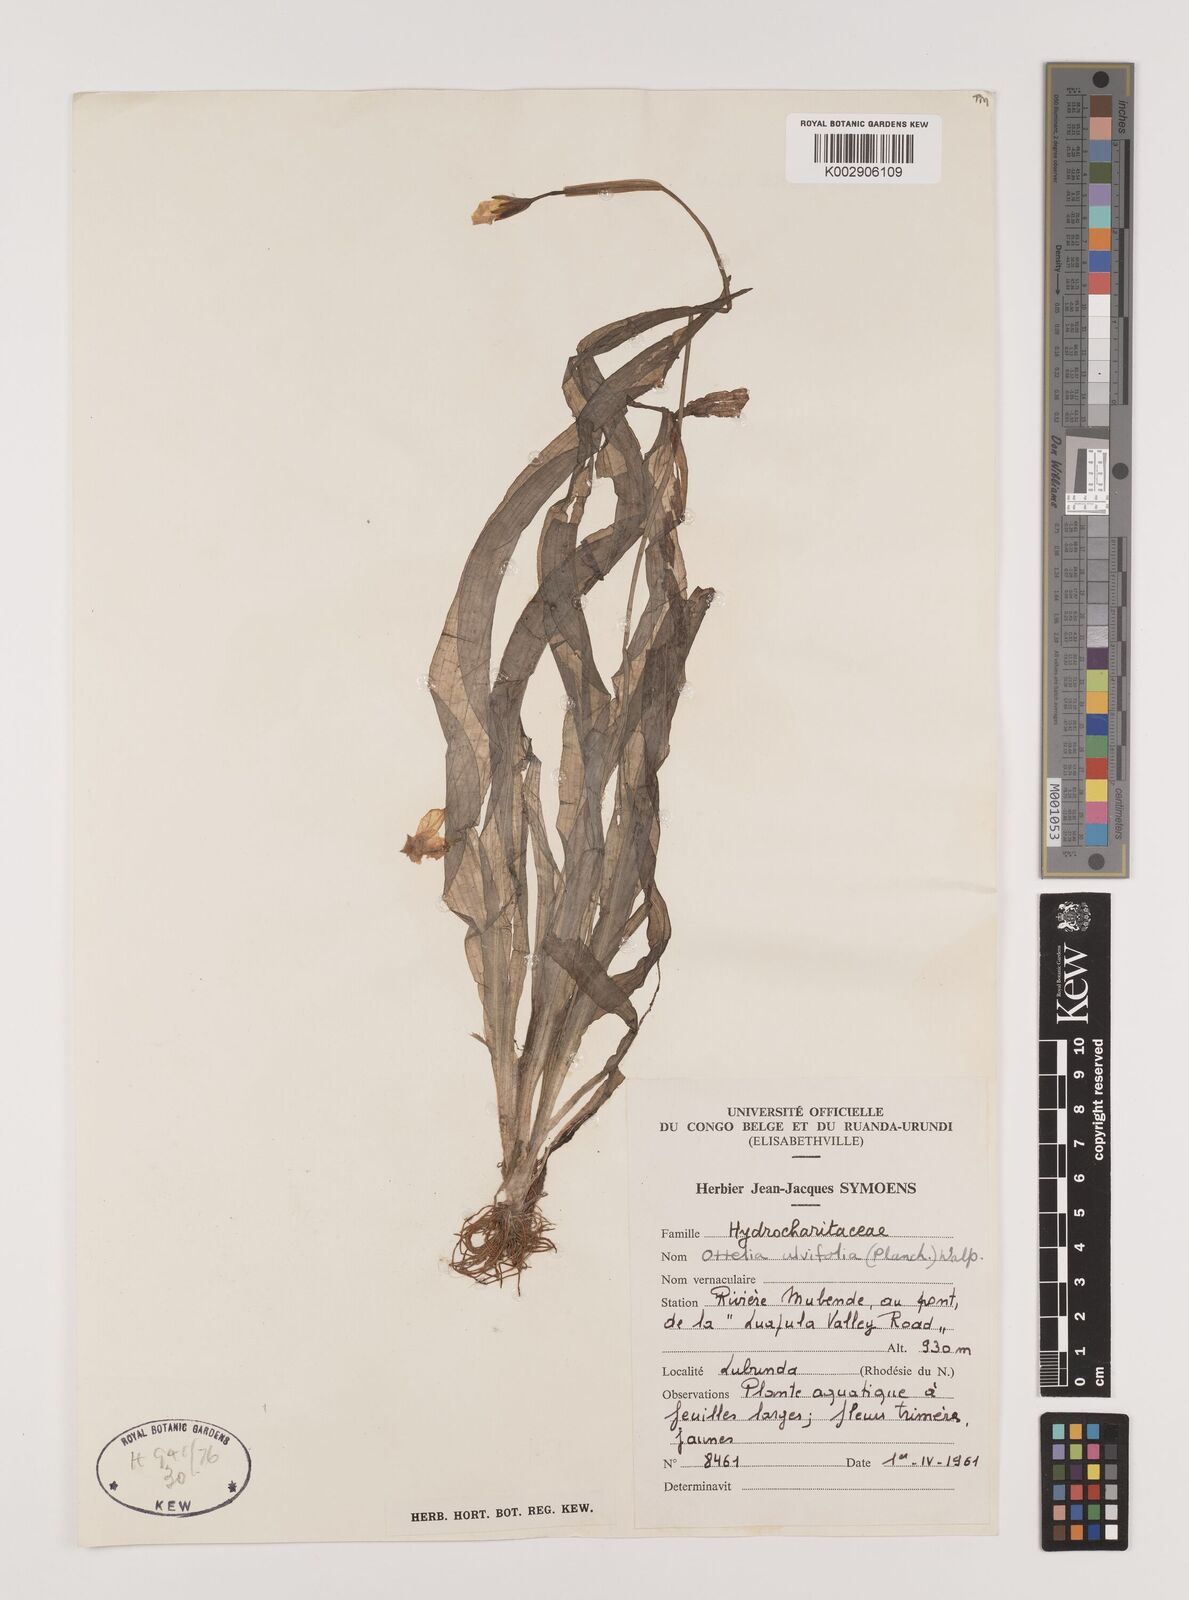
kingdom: Plantae
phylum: Tracheophyta
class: Liliopsida
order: Alismatales
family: Hydrocharitaceae
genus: Ottelia
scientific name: Ottelia ulvifolia
